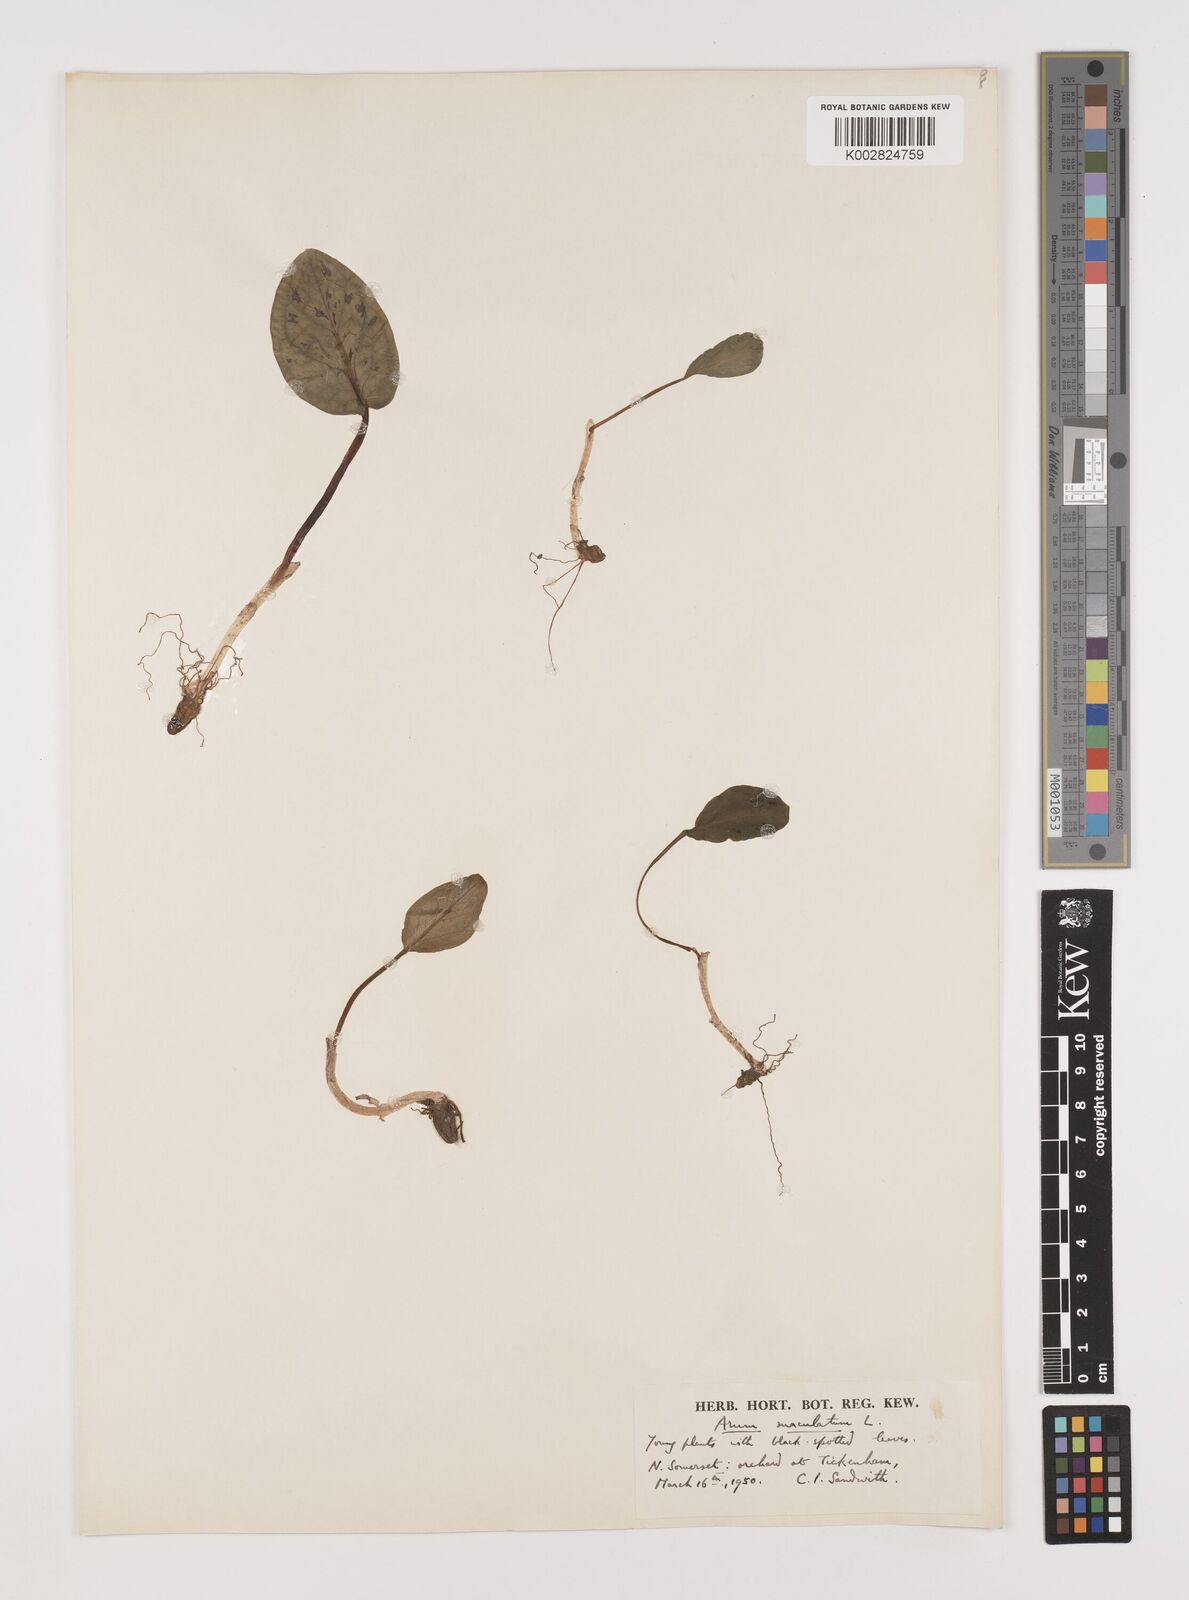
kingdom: Plantae
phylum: Tracheophyta
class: Liliopsida
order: Alismatales
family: Araceae
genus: Arum
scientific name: Arum maculatum
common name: Lords-and-ladies
